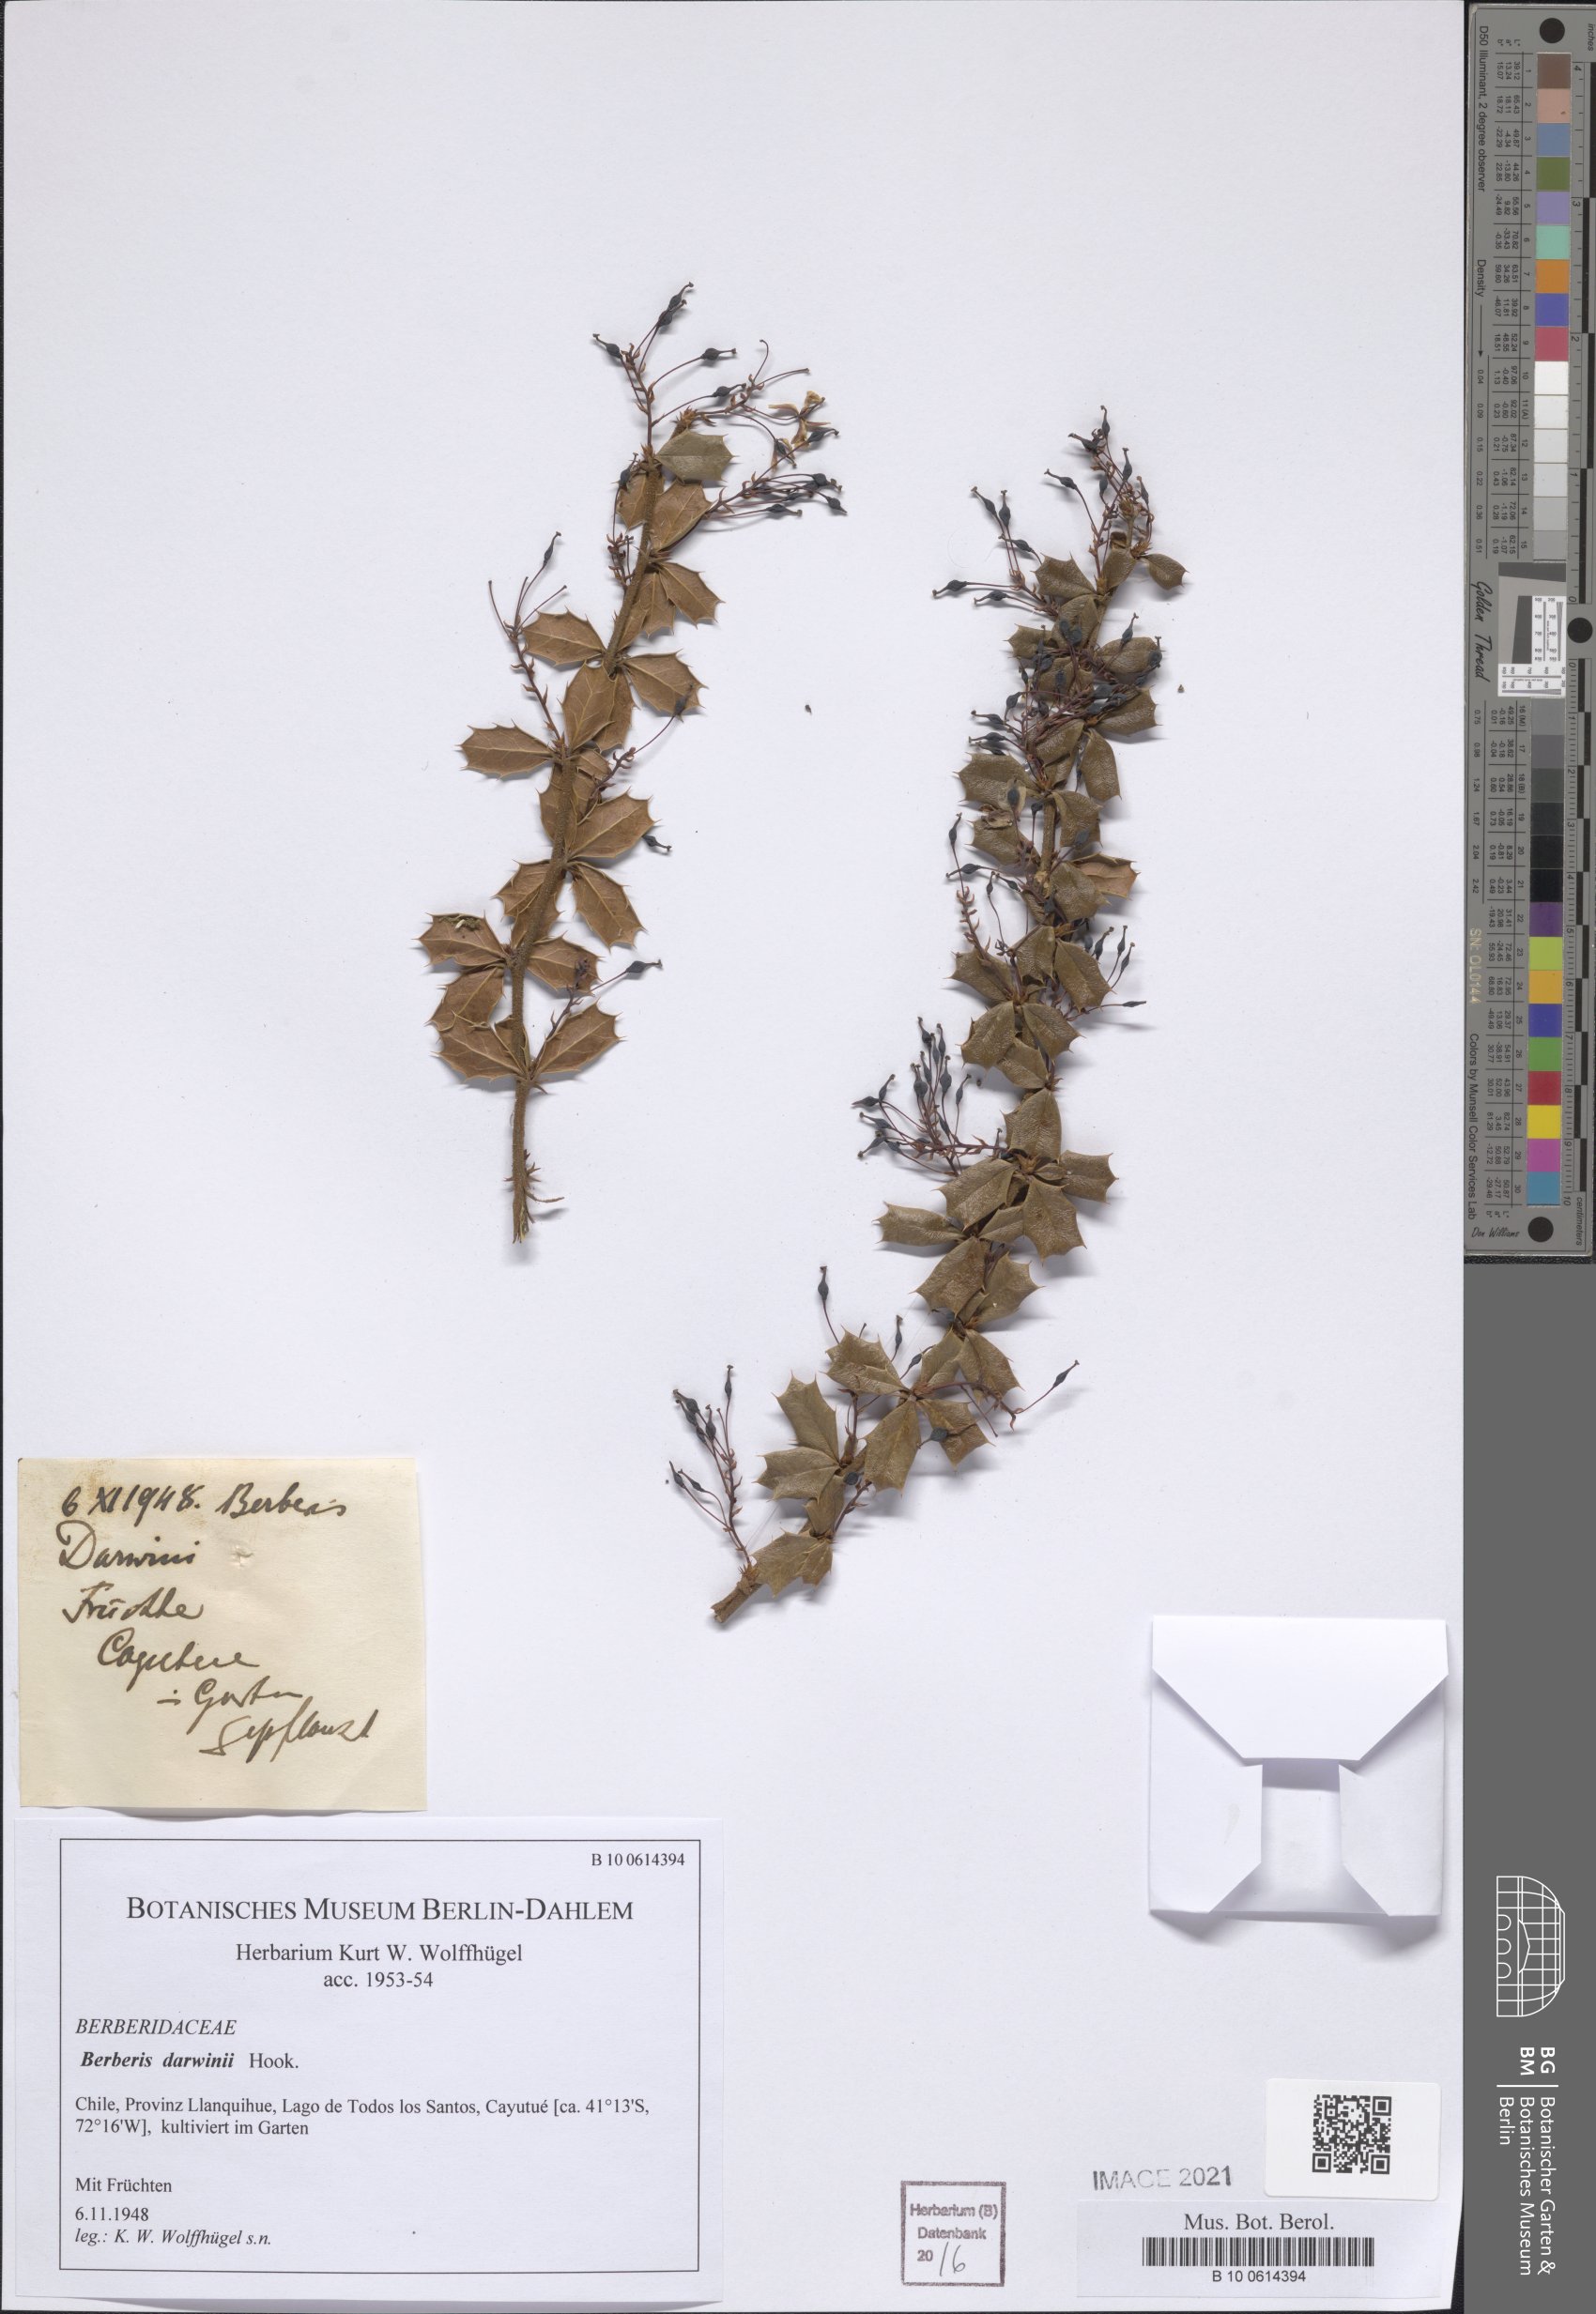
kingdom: Plantae
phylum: Tracheophyta
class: Magnoliopsida
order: Ranunculales
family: Berberidaceae
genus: Berberis
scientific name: Berberis darwinii
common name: Darwin's barberry
